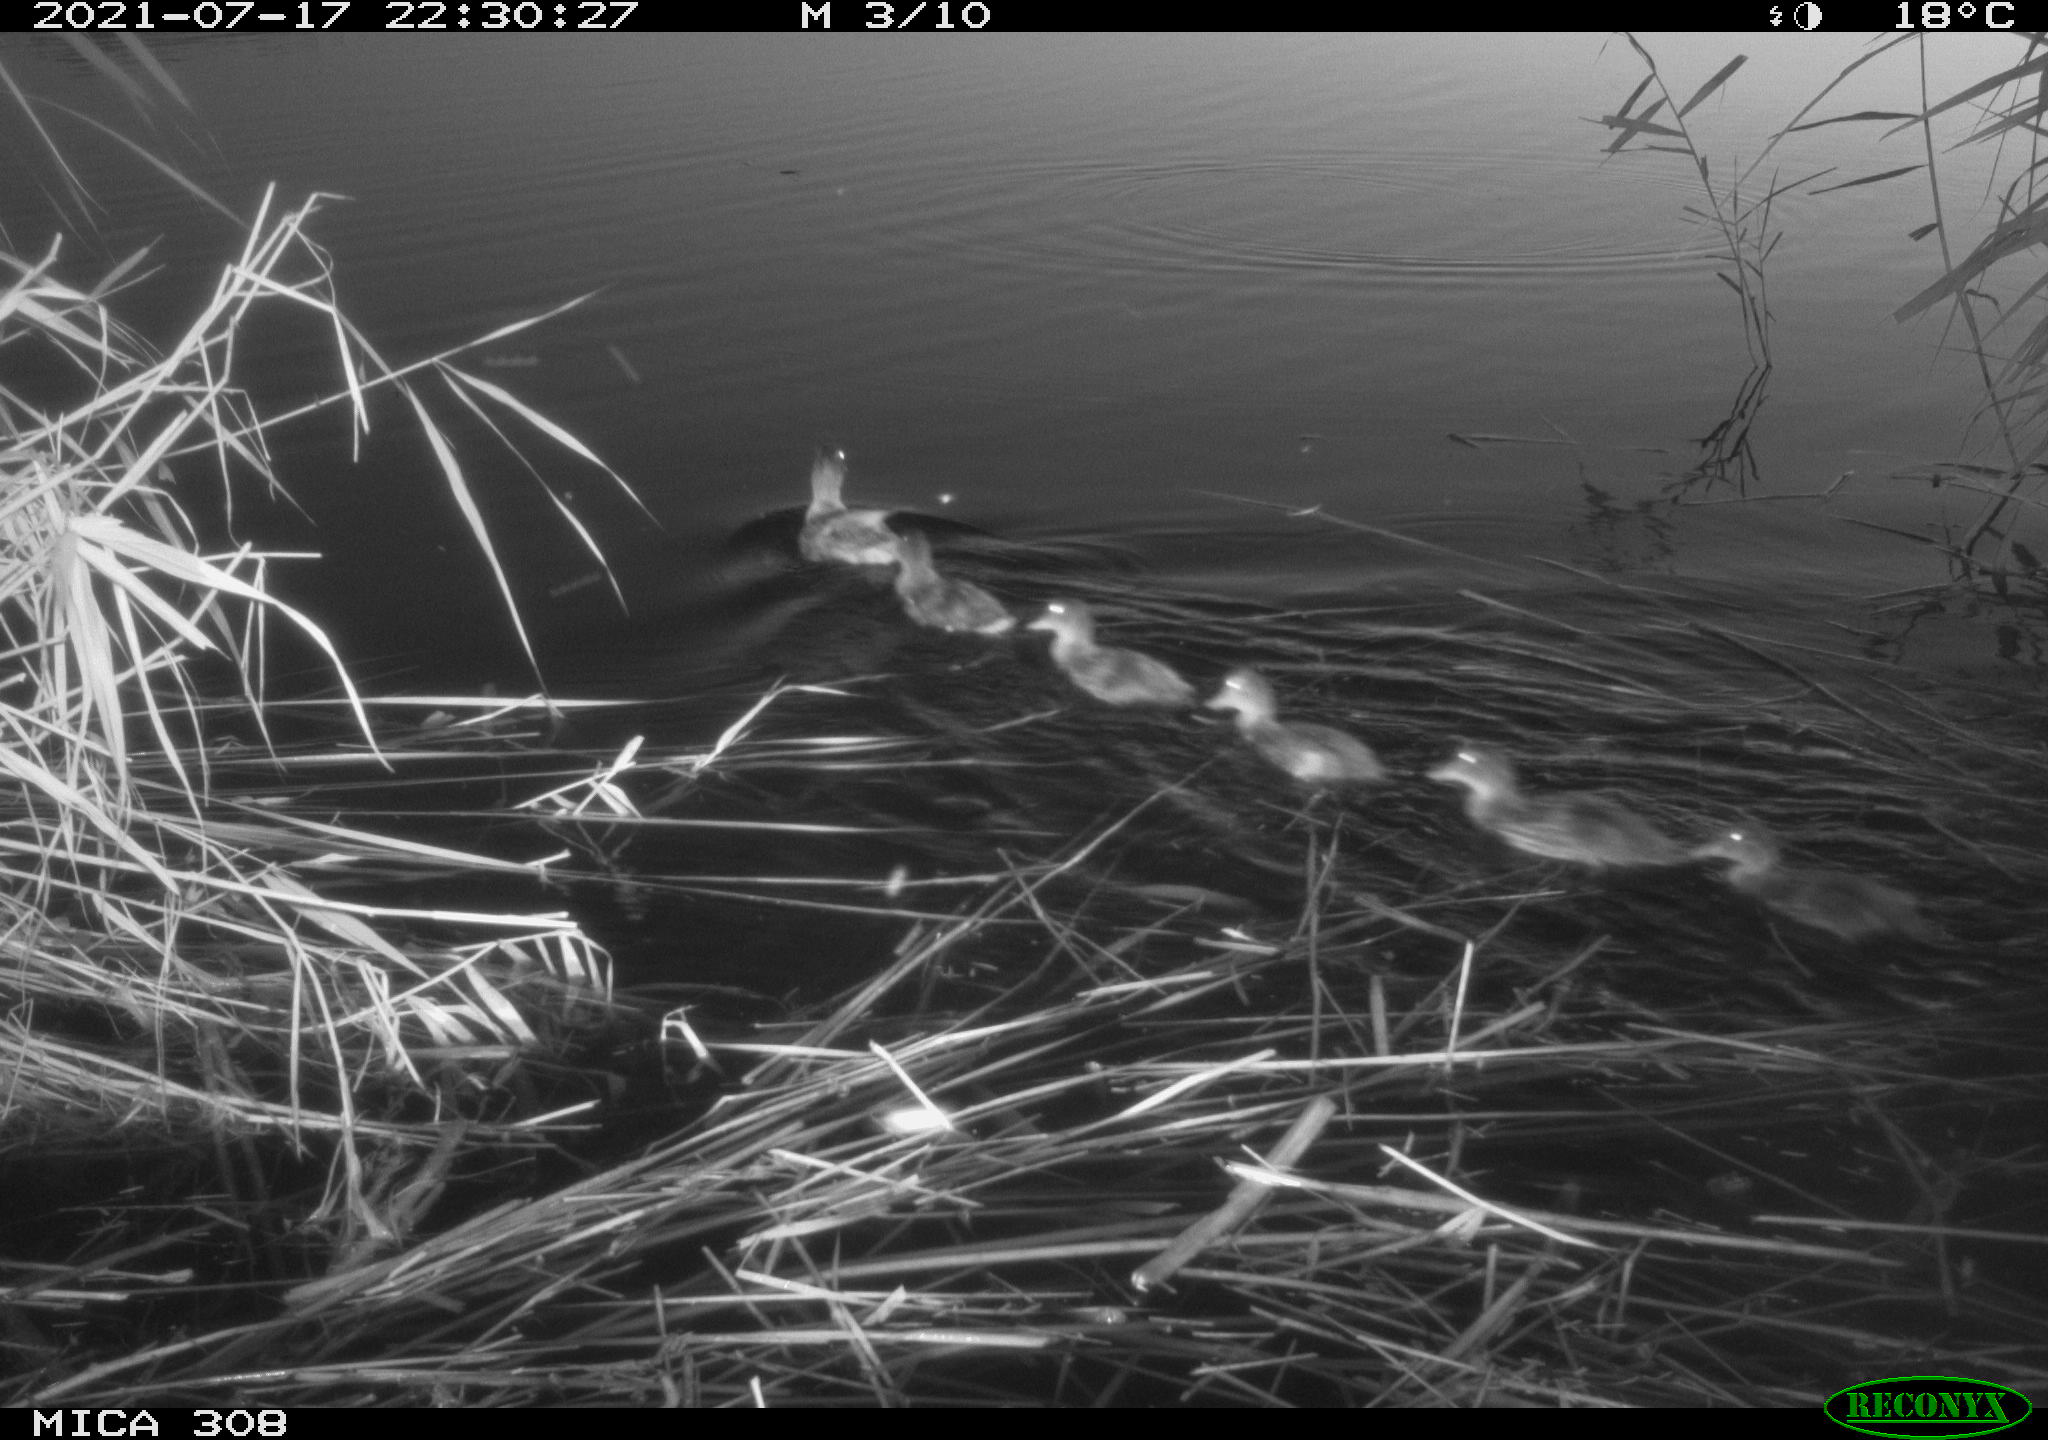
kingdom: Animalia
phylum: Chordata
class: Aves
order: Anseriformes
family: Anatidae
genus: Anas
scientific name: Anas platyrhynchos
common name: Mallard
